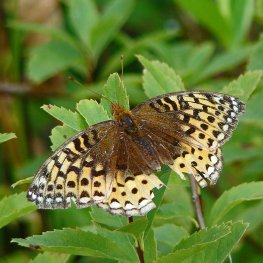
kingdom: Animalia
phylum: Arthropoda
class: Insecta
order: Lepidoptera
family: Nymphalidae
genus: Speyeria
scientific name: Speyeria cybele
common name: Great Spangled Fritillary
